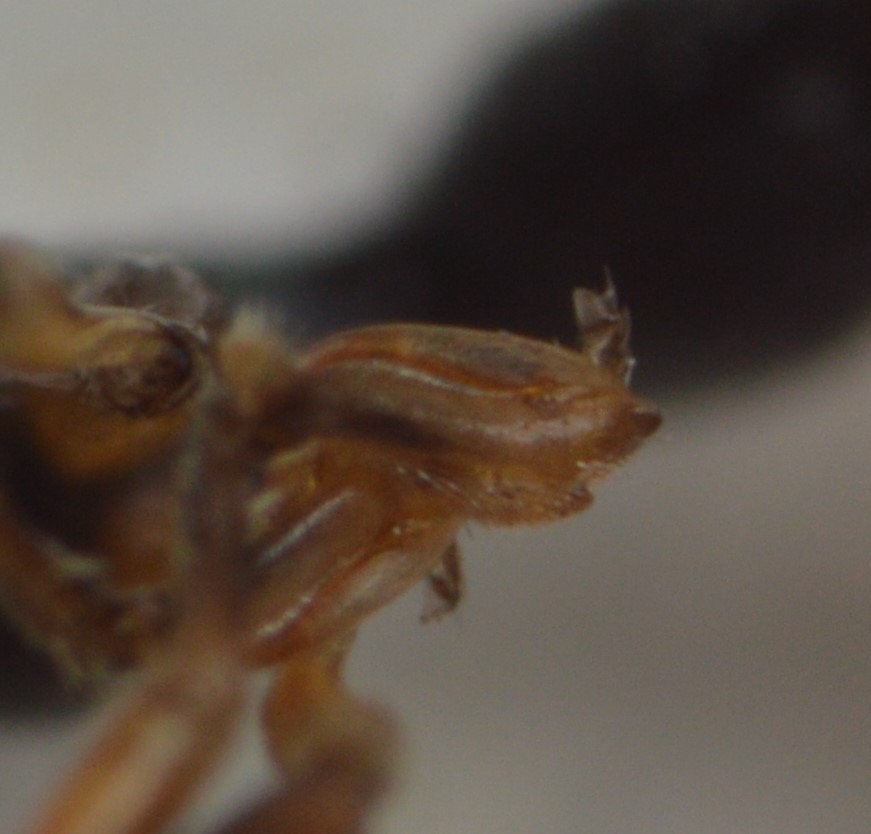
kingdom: Animalia
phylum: Arthropoda
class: Insecta
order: Hymenoptera
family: Dryinidae
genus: Gonatopus
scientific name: Gonatopus clavipes
